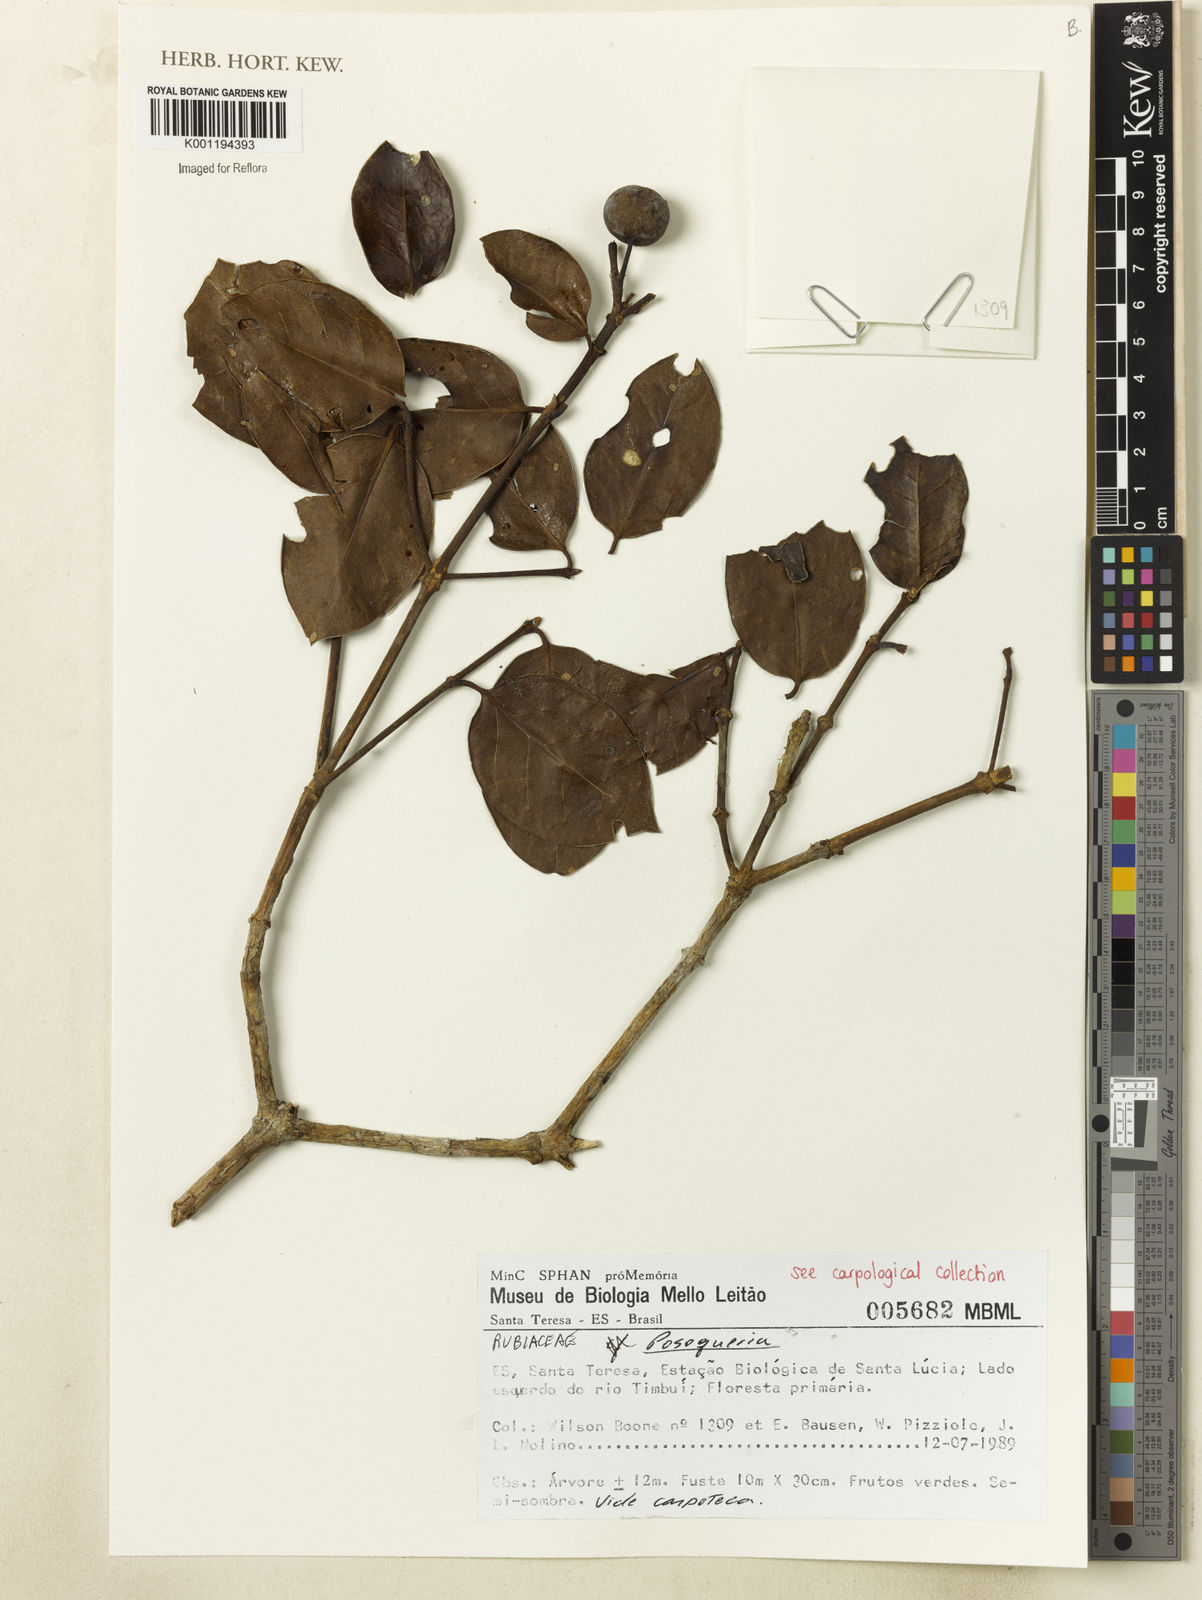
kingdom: Plantae
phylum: Tracheophyta
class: Magnoliopsida
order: Gentianales
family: Rubiaceae
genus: Posoqueria
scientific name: Posoqueria
